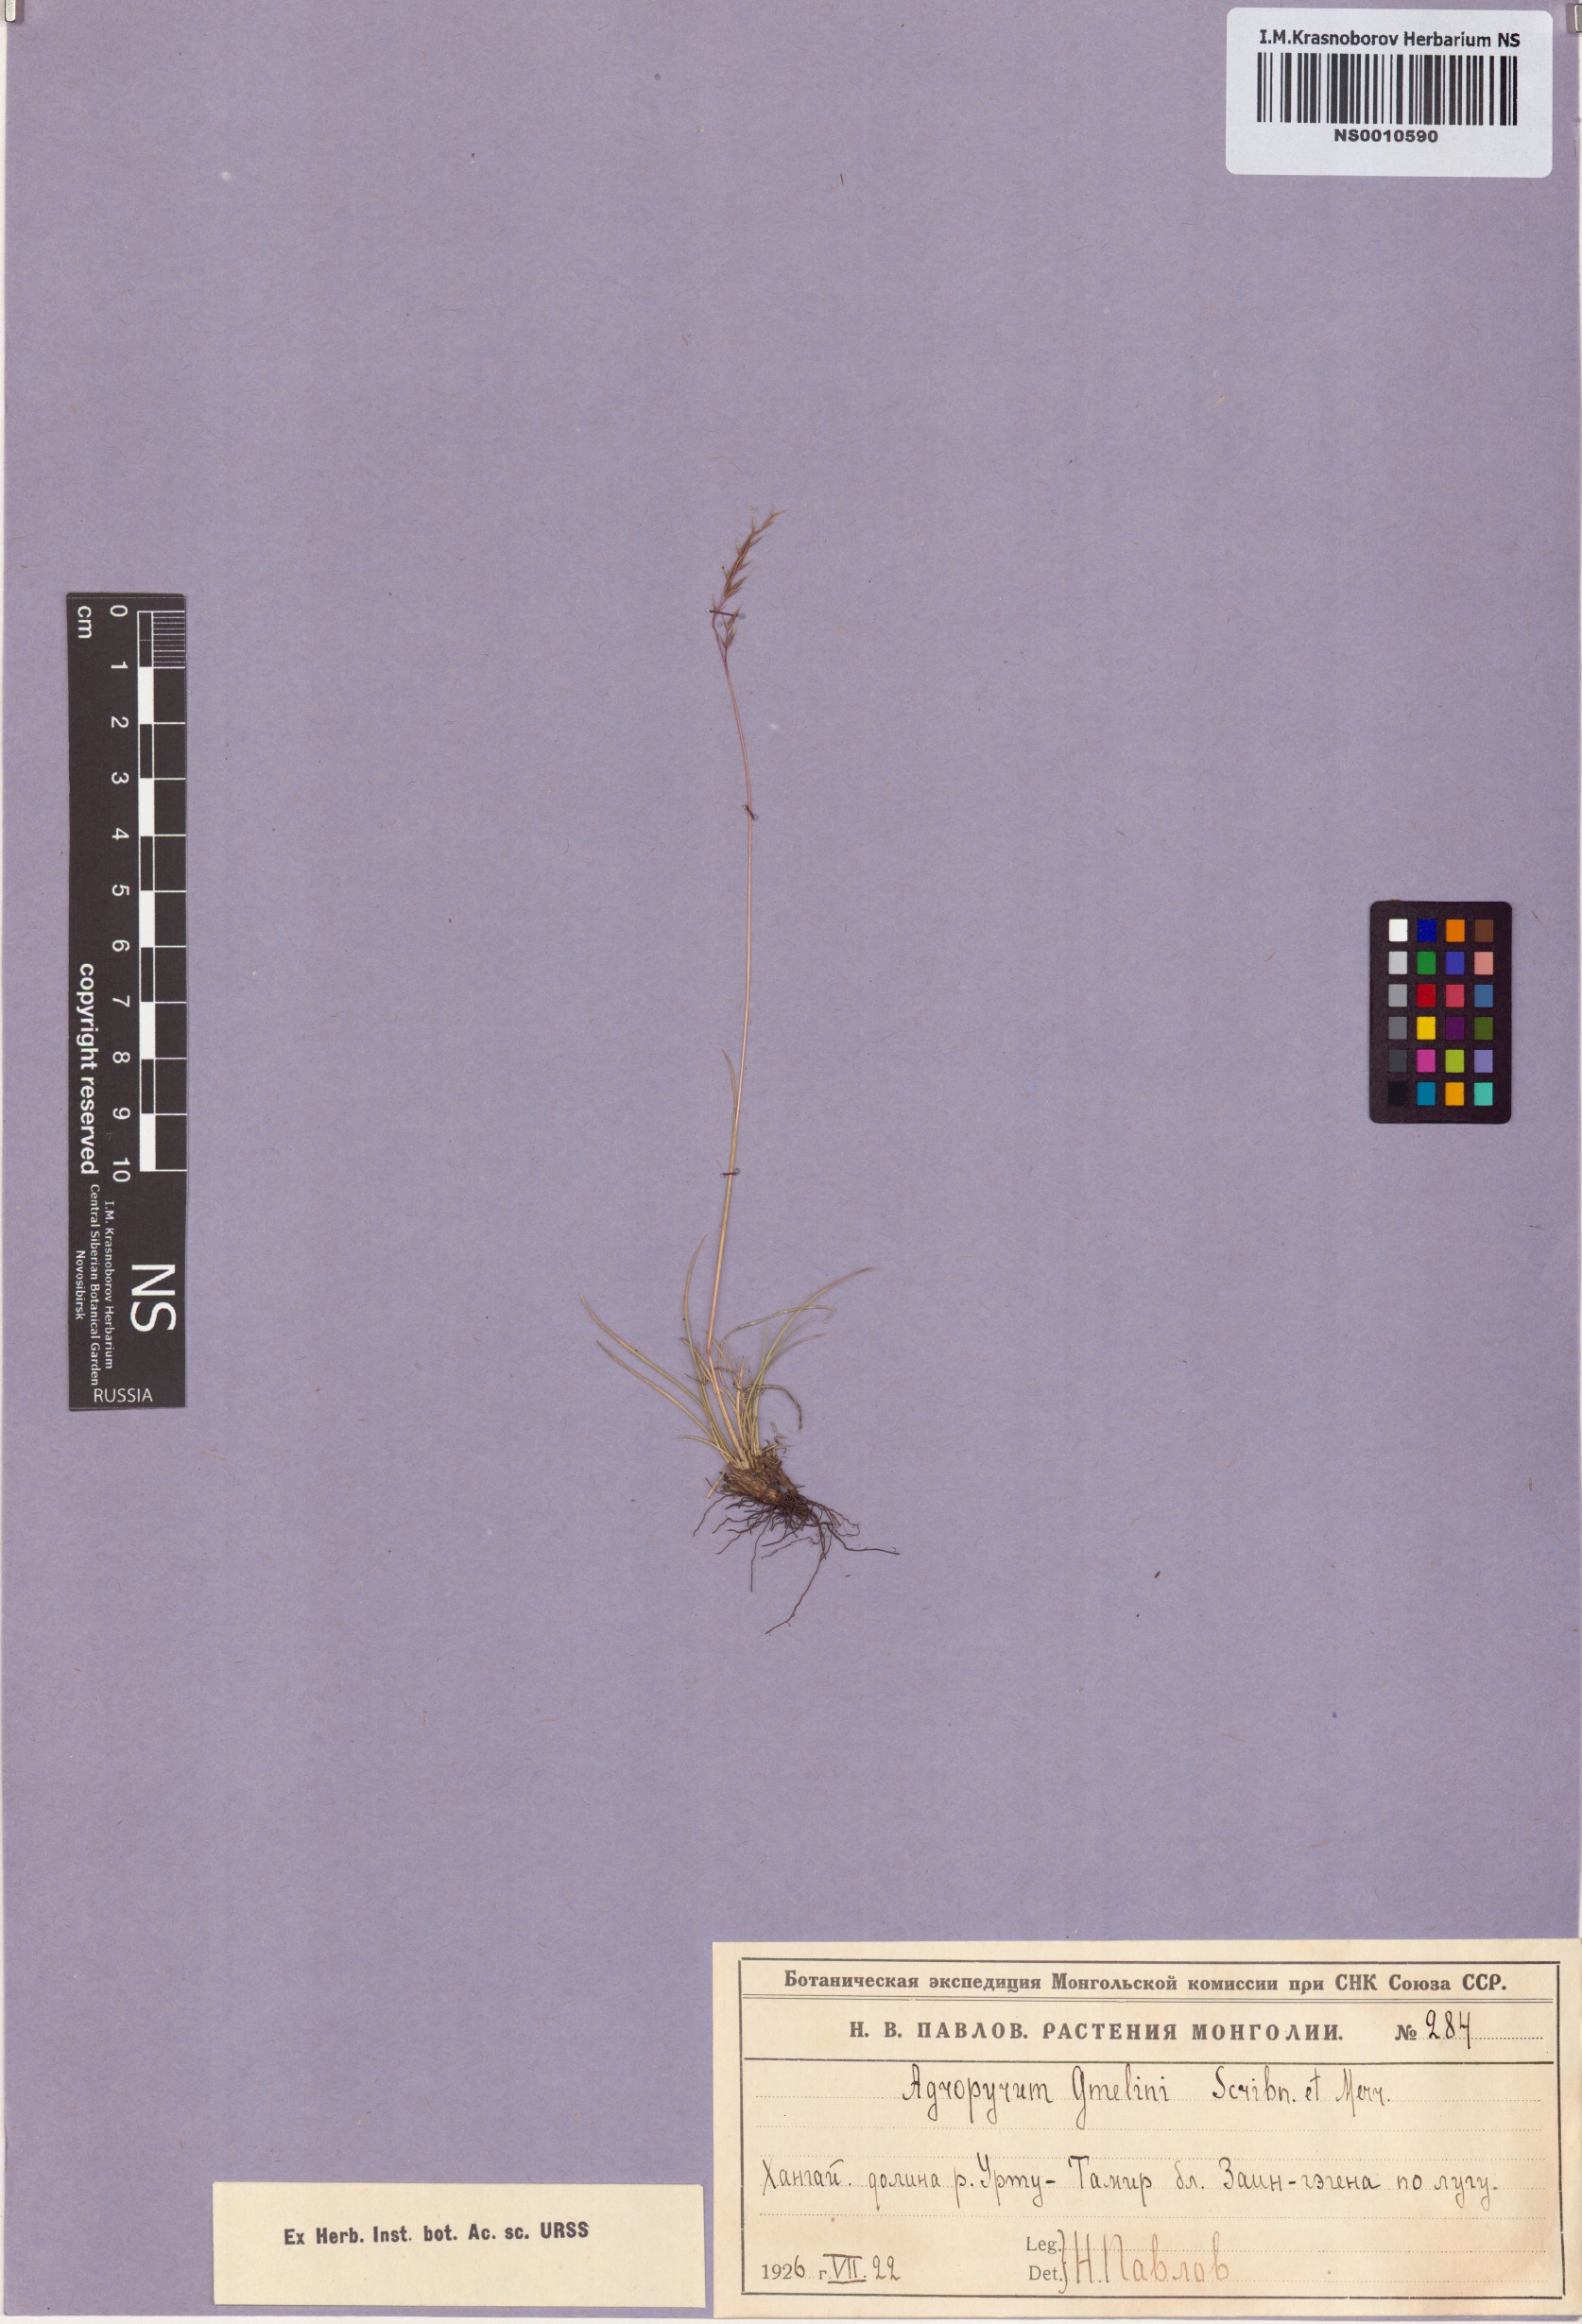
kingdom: Plantae
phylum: Tracheophyta
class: Liliopsida
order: Poales
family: Poaceae
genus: Elymus
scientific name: Elymus gmelinii
